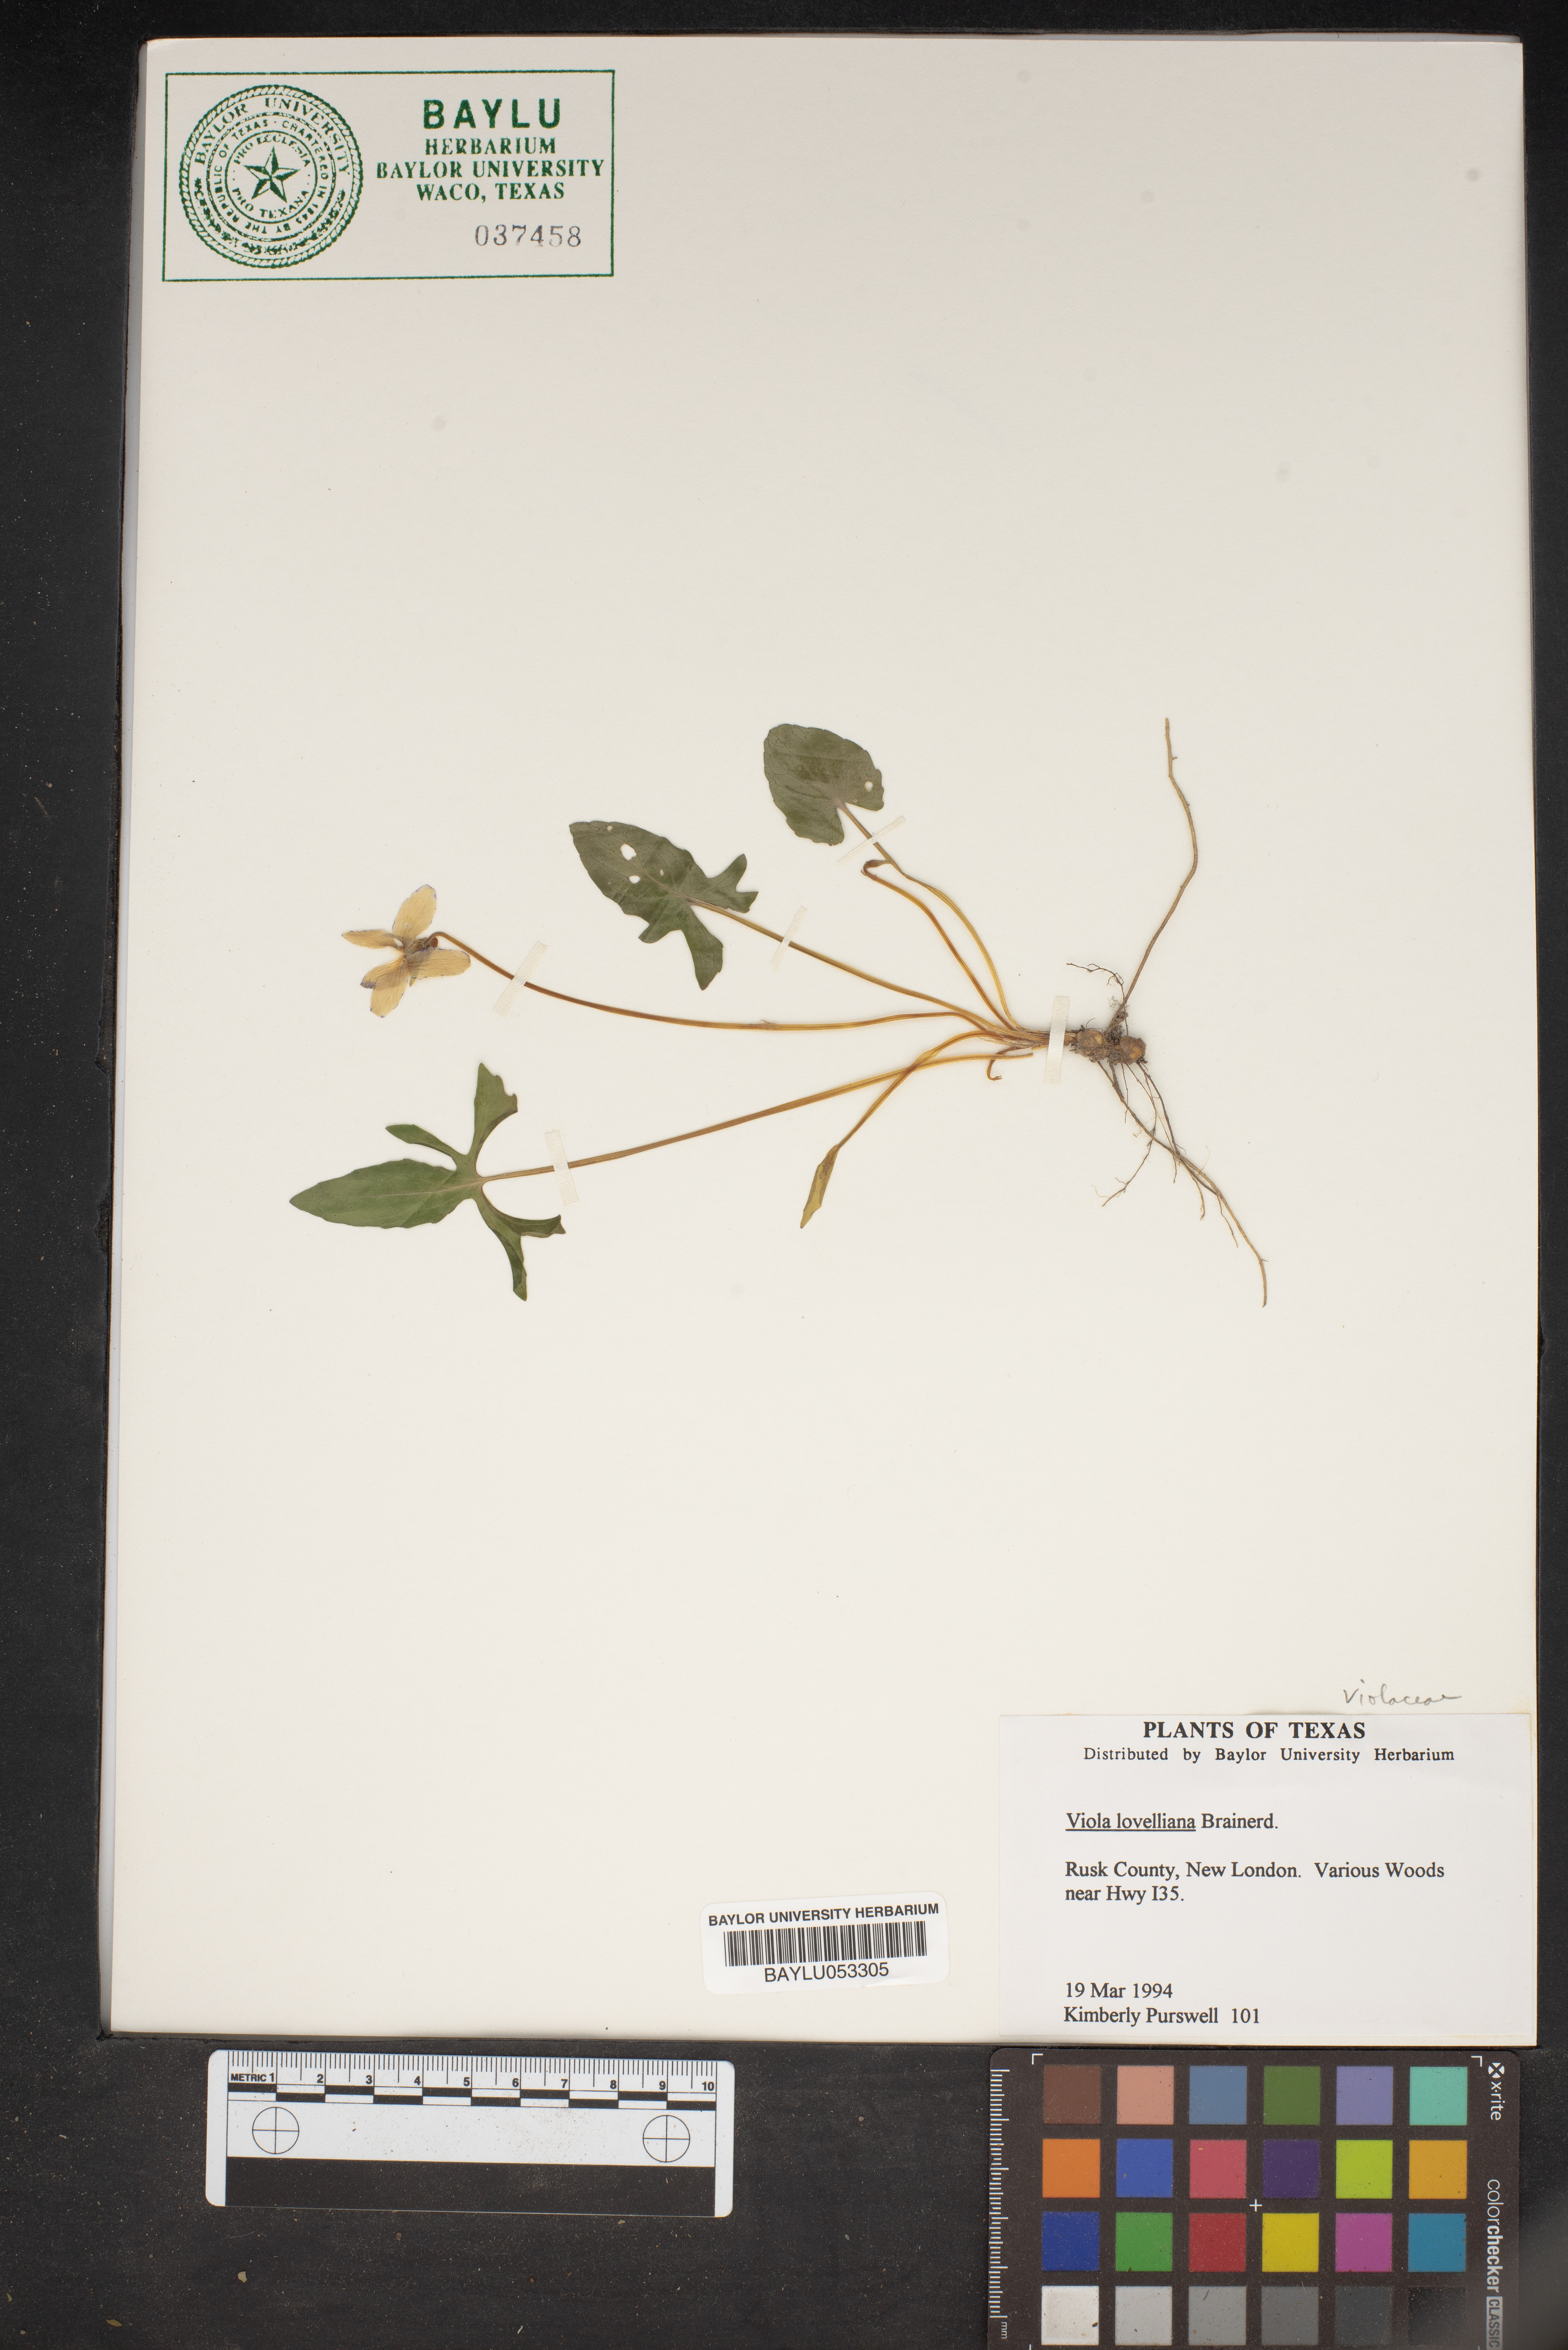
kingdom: Plantae
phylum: Tracheophyta
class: Magnoliopsida
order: Malpighiales
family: Violaceae
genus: Viola
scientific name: Viola lovelliana
